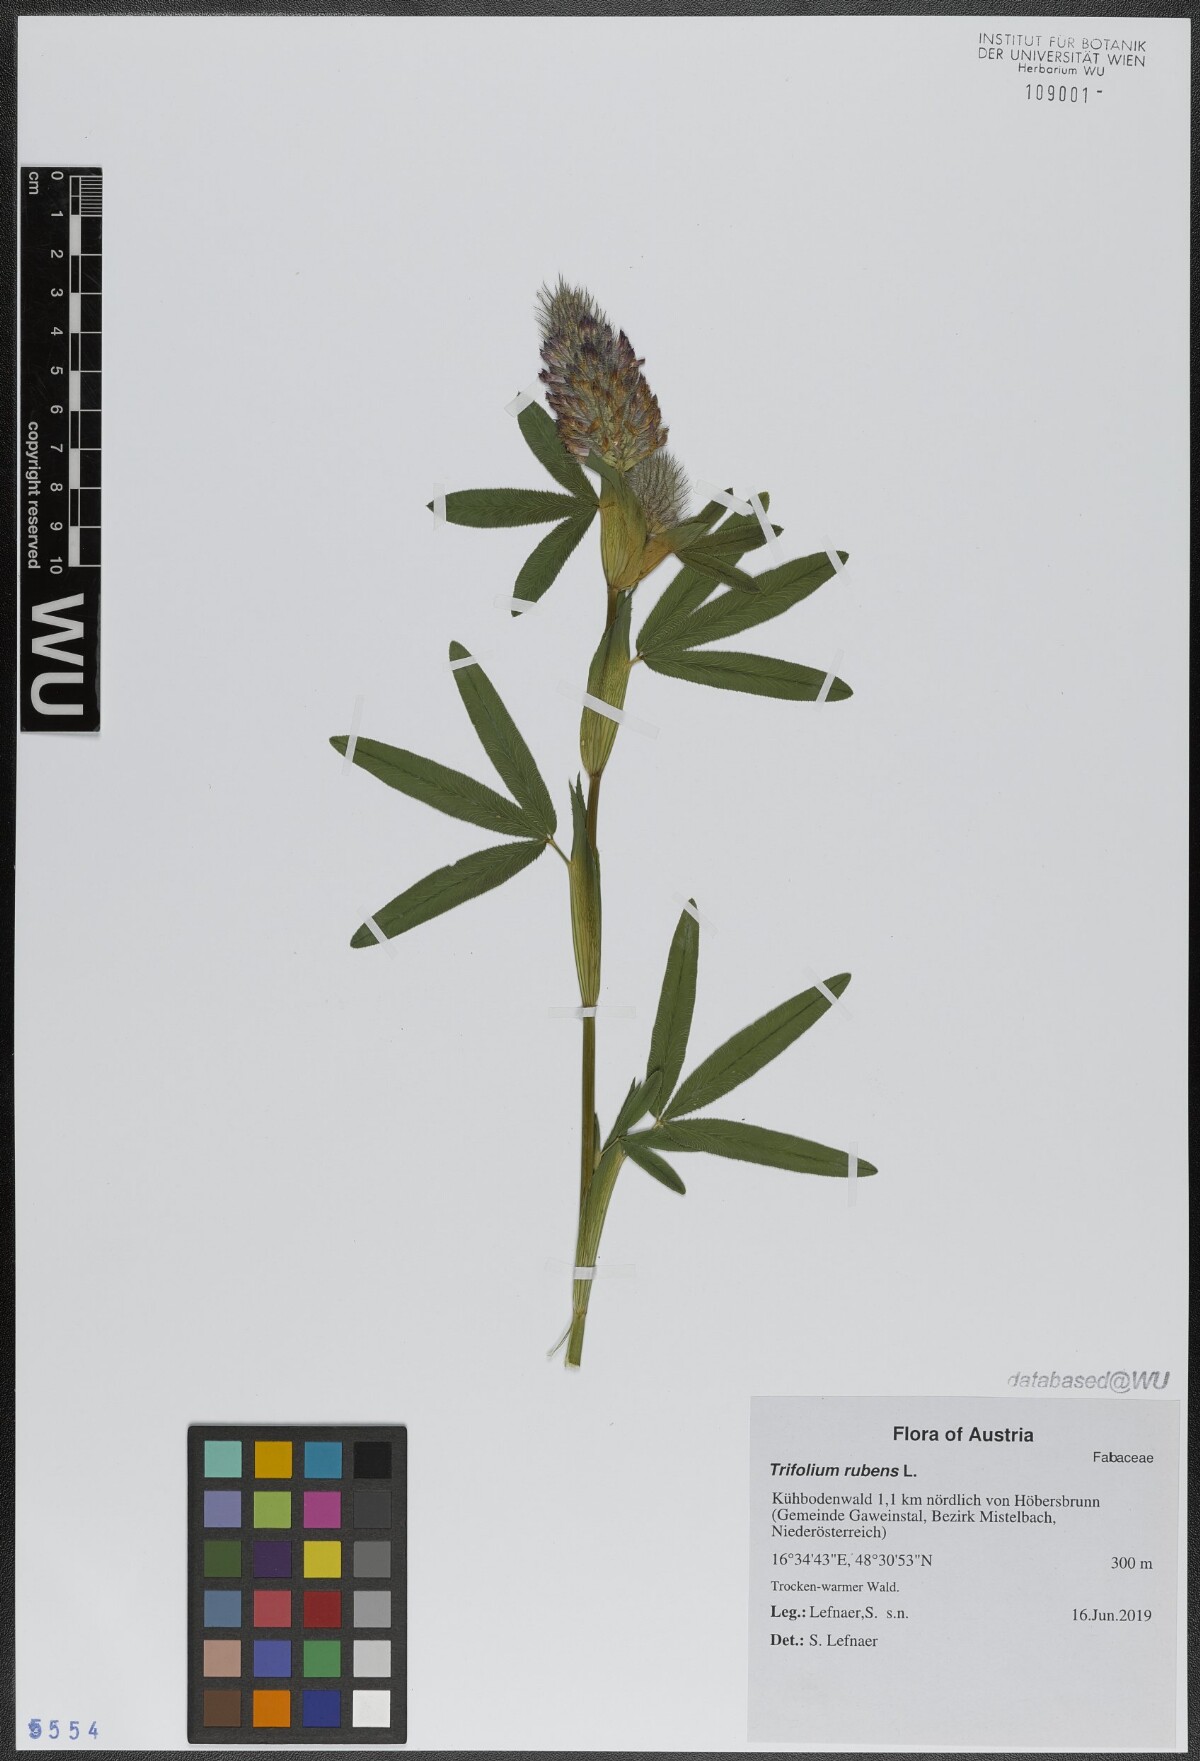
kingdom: Plantae
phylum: Tracheophyta
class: Magnoliopsida
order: Fabales
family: Fabaceae
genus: Trifolium
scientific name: Trifolium rubens
